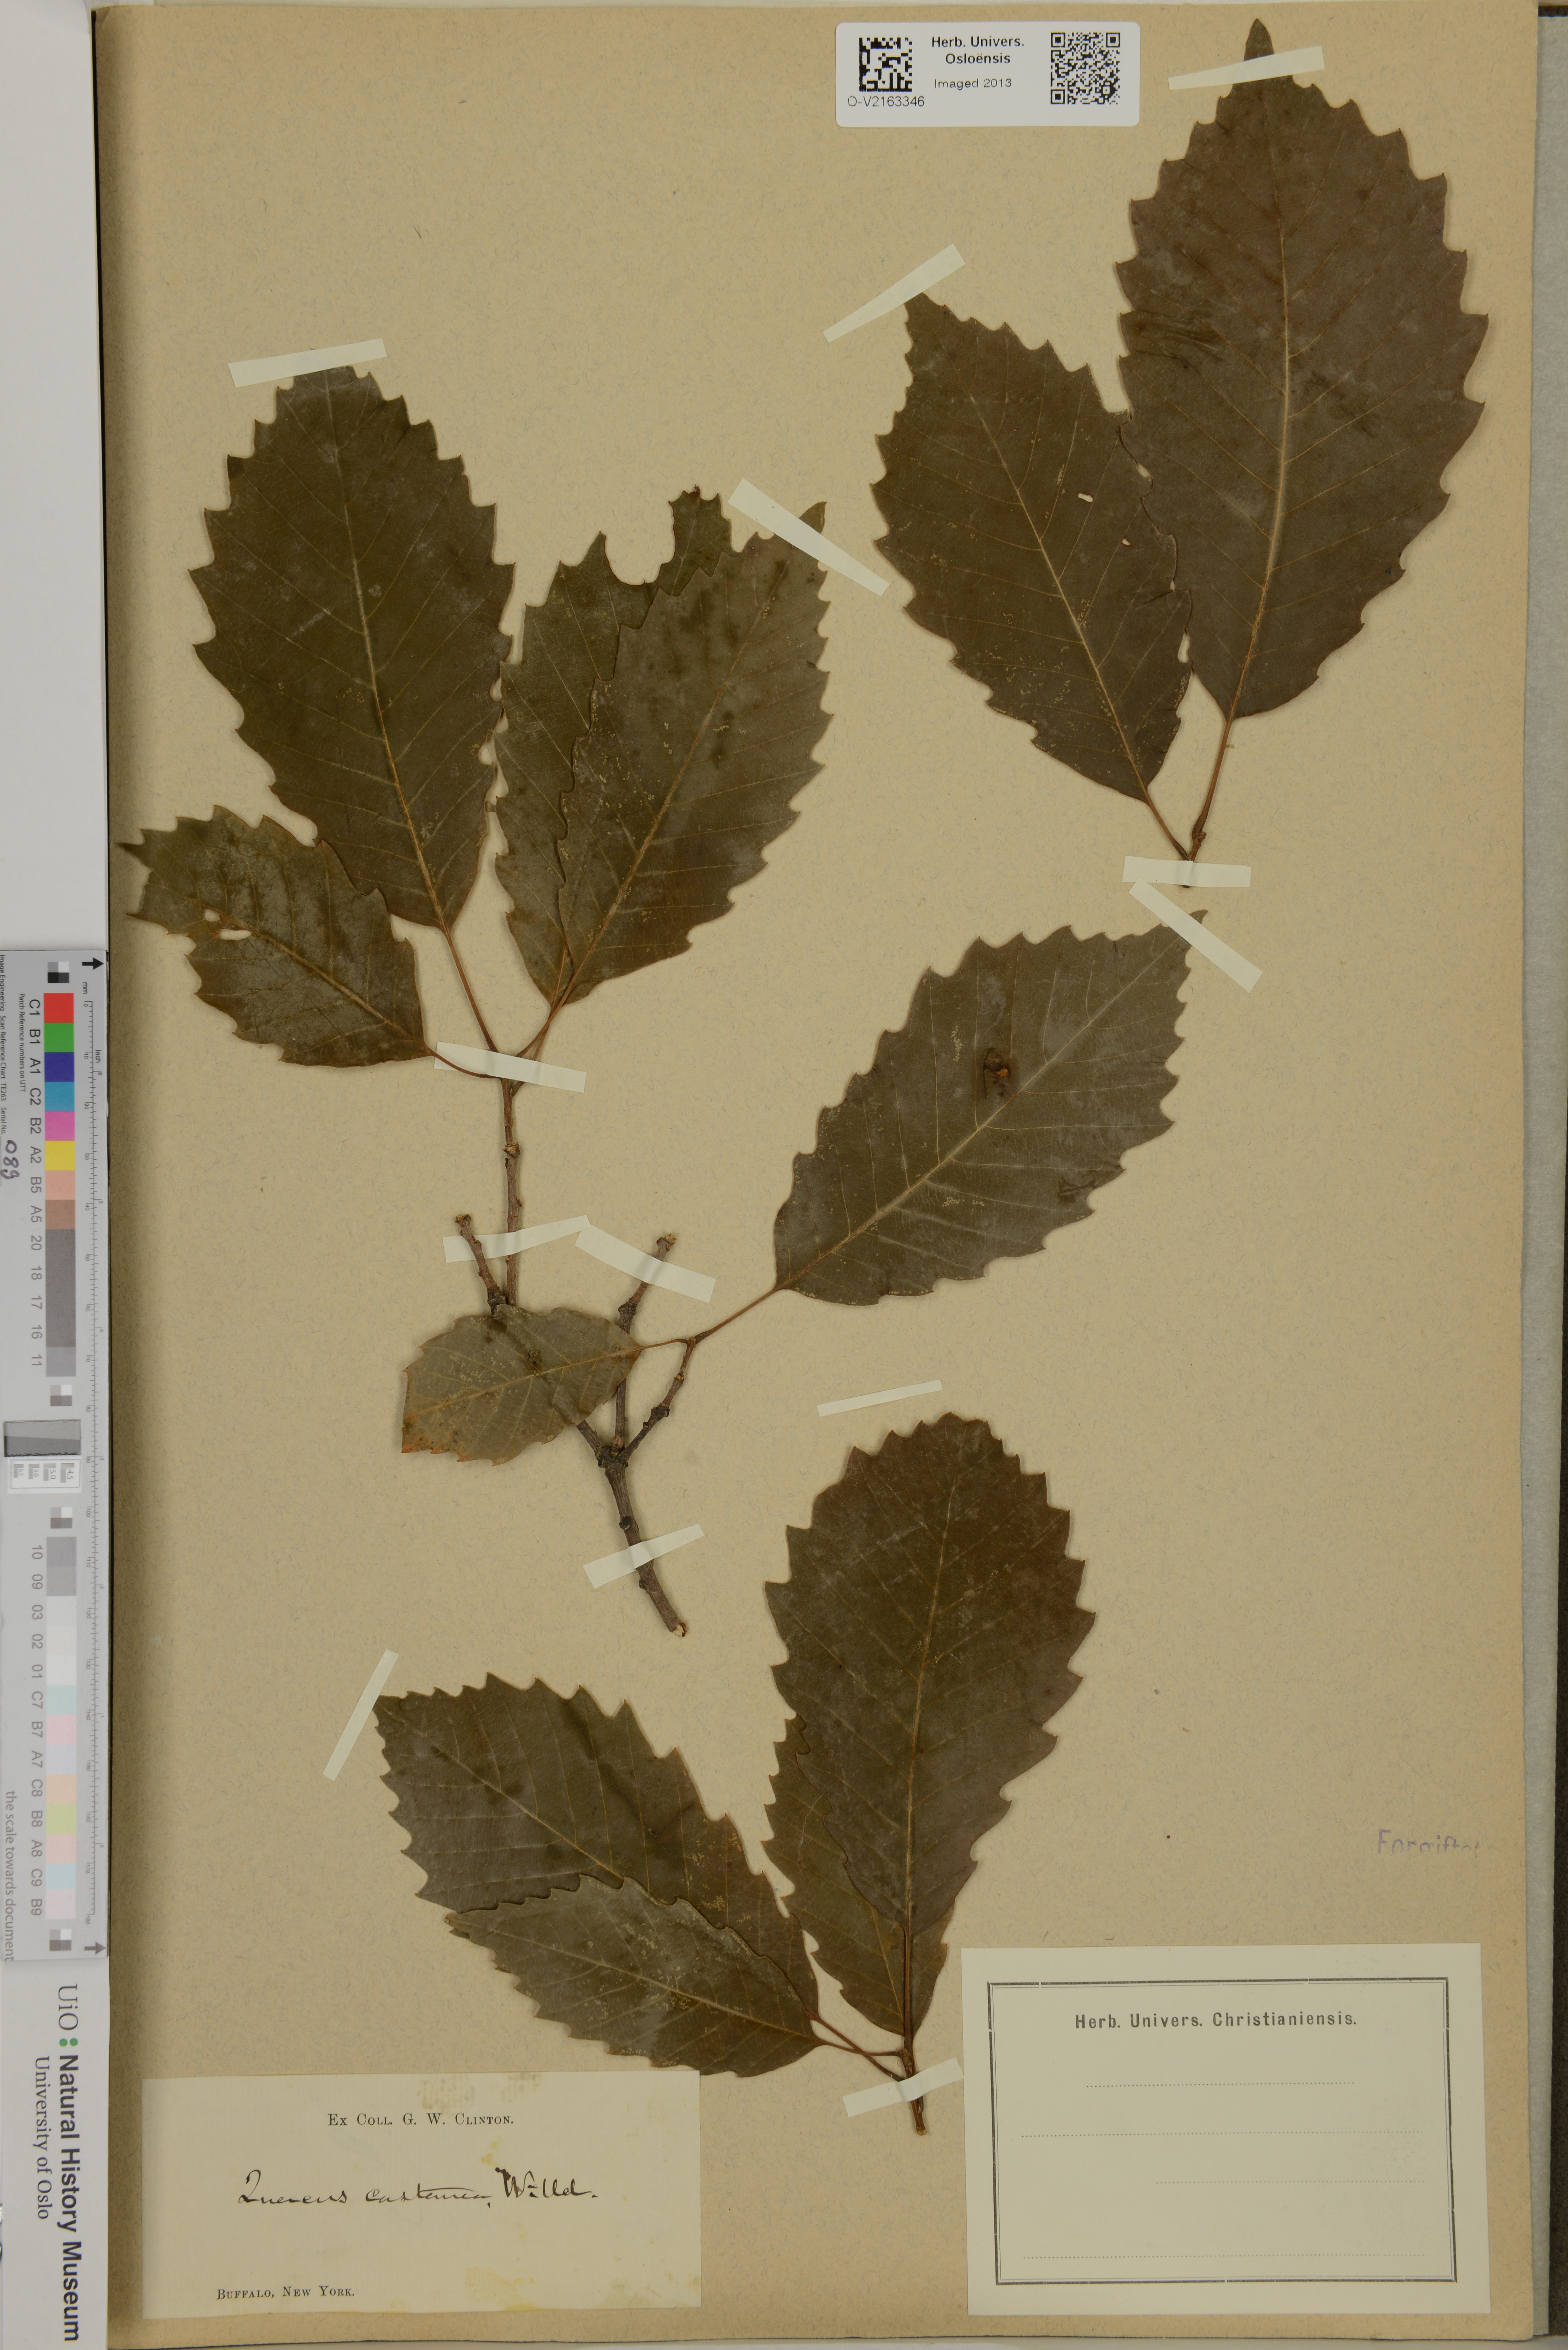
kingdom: Plantae
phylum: Tracheophyta
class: Magnoliopsida
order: Fagales
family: Fagaceae
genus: Quercus
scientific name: Quercus castanea
